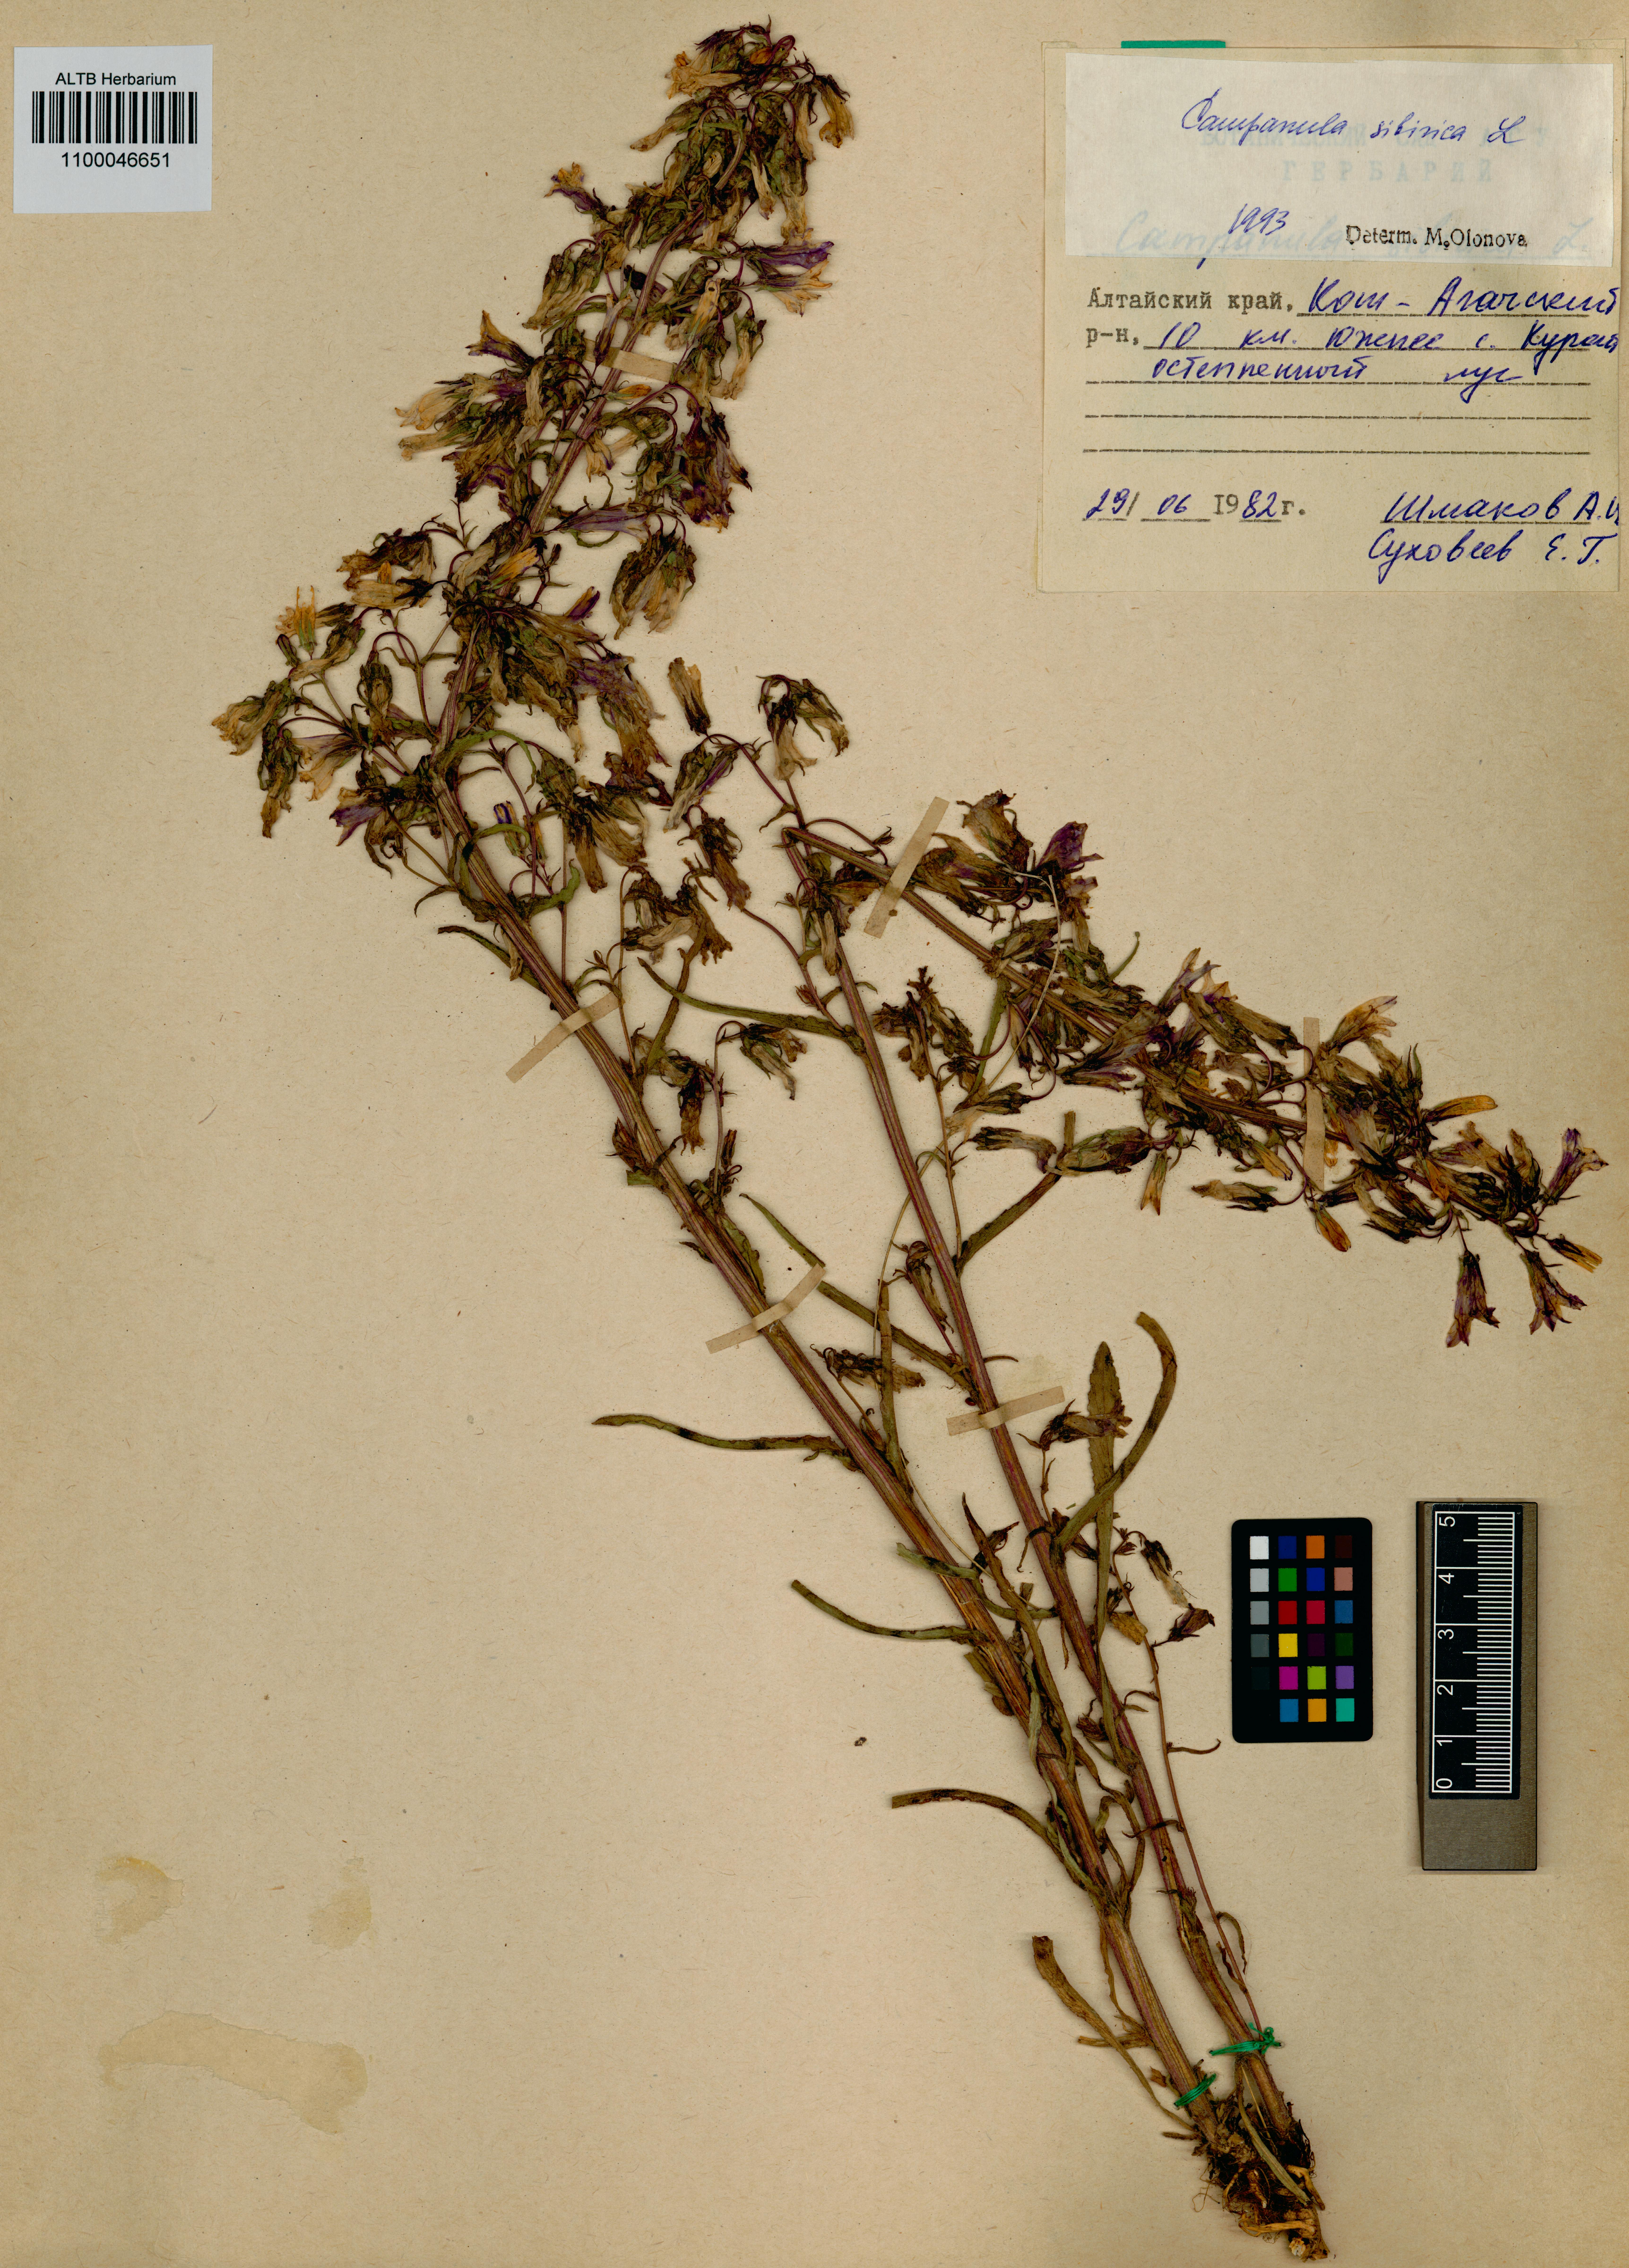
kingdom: Plantae
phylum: Tracheophyta
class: Magnoliopsida
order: Asterales
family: Campanulaceae
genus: Campanula
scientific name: Campanula sibirica
